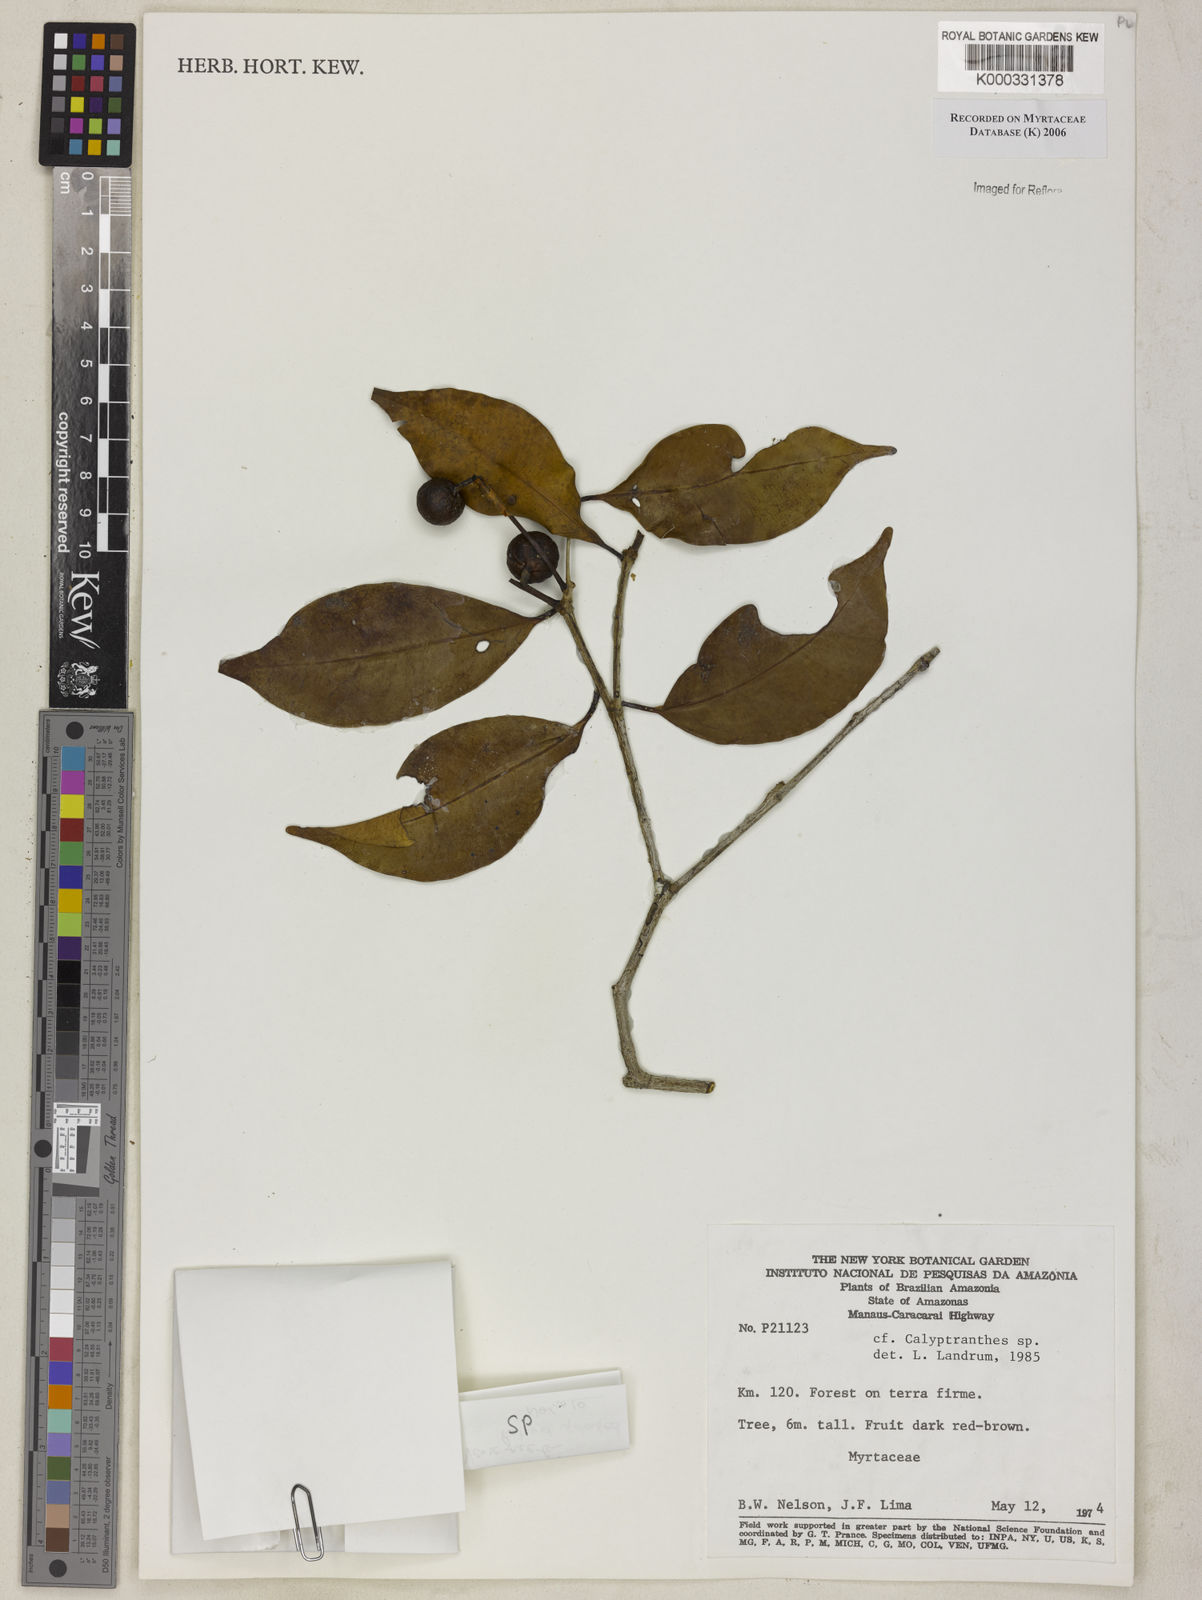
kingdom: Plantae
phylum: Tracheophyta
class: Magnoliopsida
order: Myrtales
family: Myrtaceae
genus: Calyptranthes
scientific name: Calyptranthes
